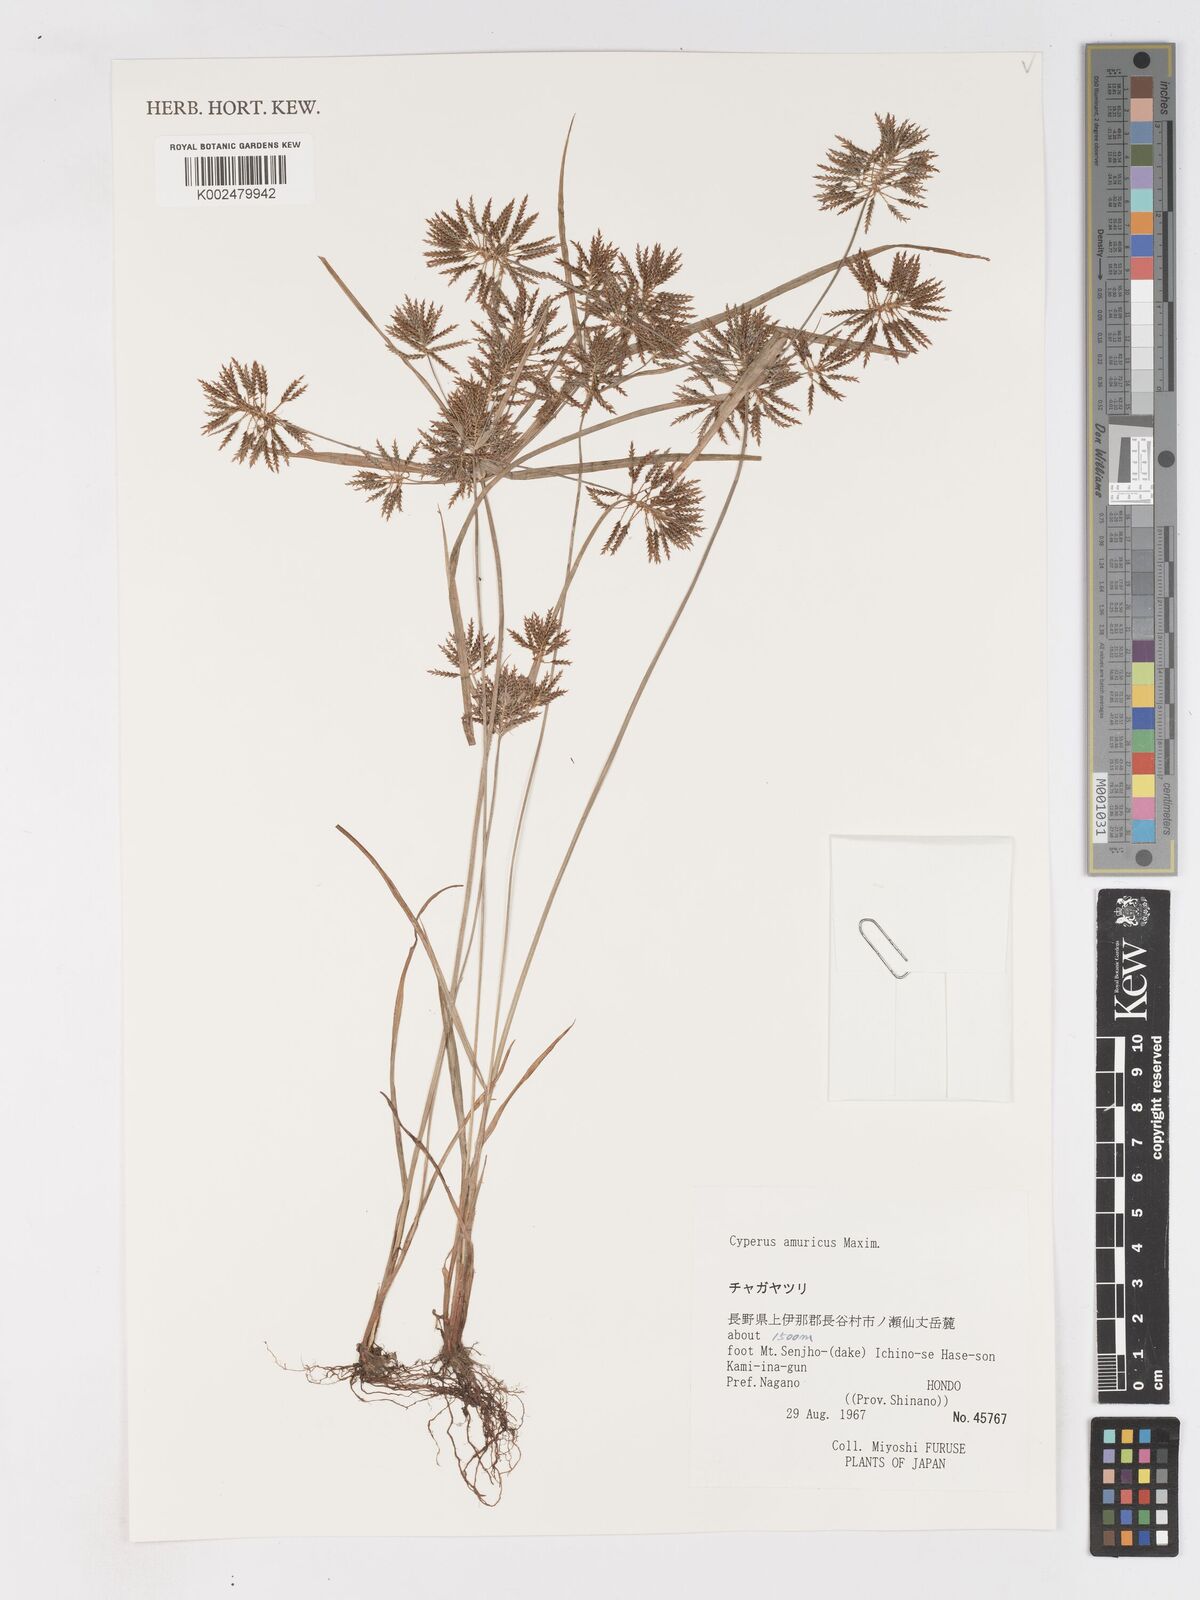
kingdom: Plantae
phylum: Tracheophyta
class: Liliopsida
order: Poales
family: Cyperaceae
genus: Cyperus
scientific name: Cyperus amuricus
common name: Asian flatsedge
